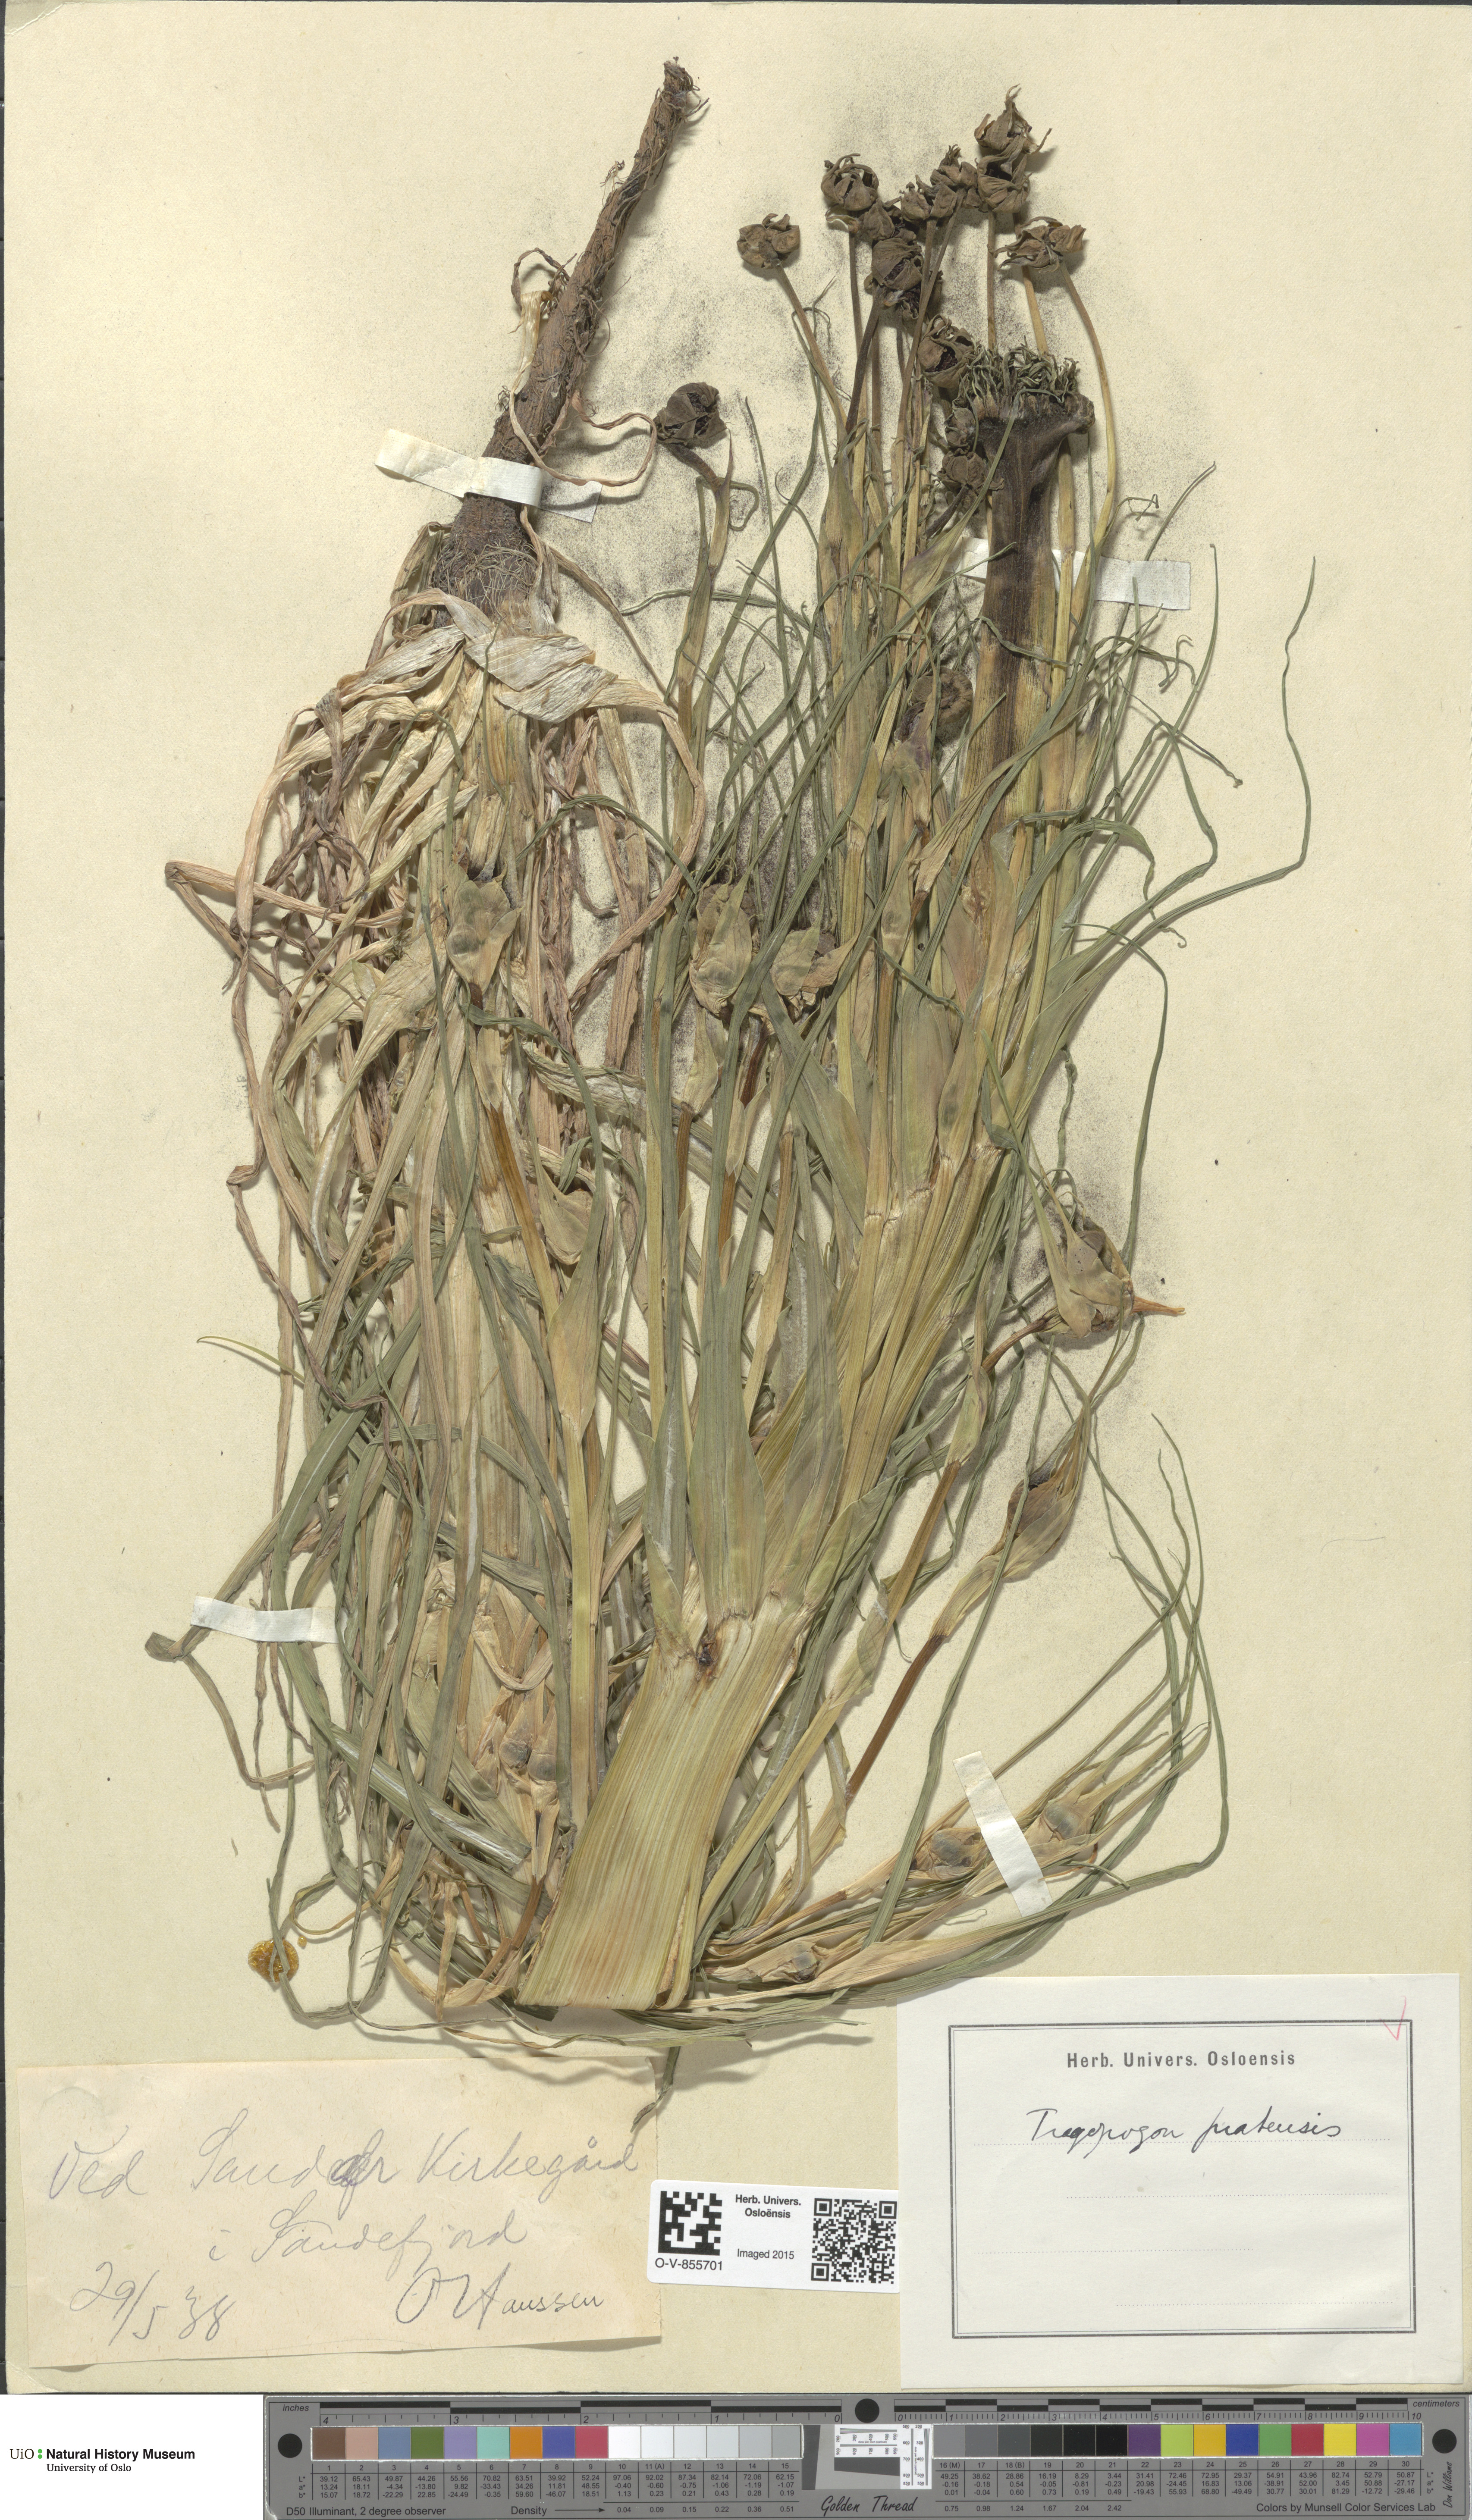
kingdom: Plantae
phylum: Tracheophyta
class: Magnoliopsida
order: Asterales
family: Asteraceae
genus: Tragopogon
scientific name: Tragopogon pratensis
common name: Goat's-beard
